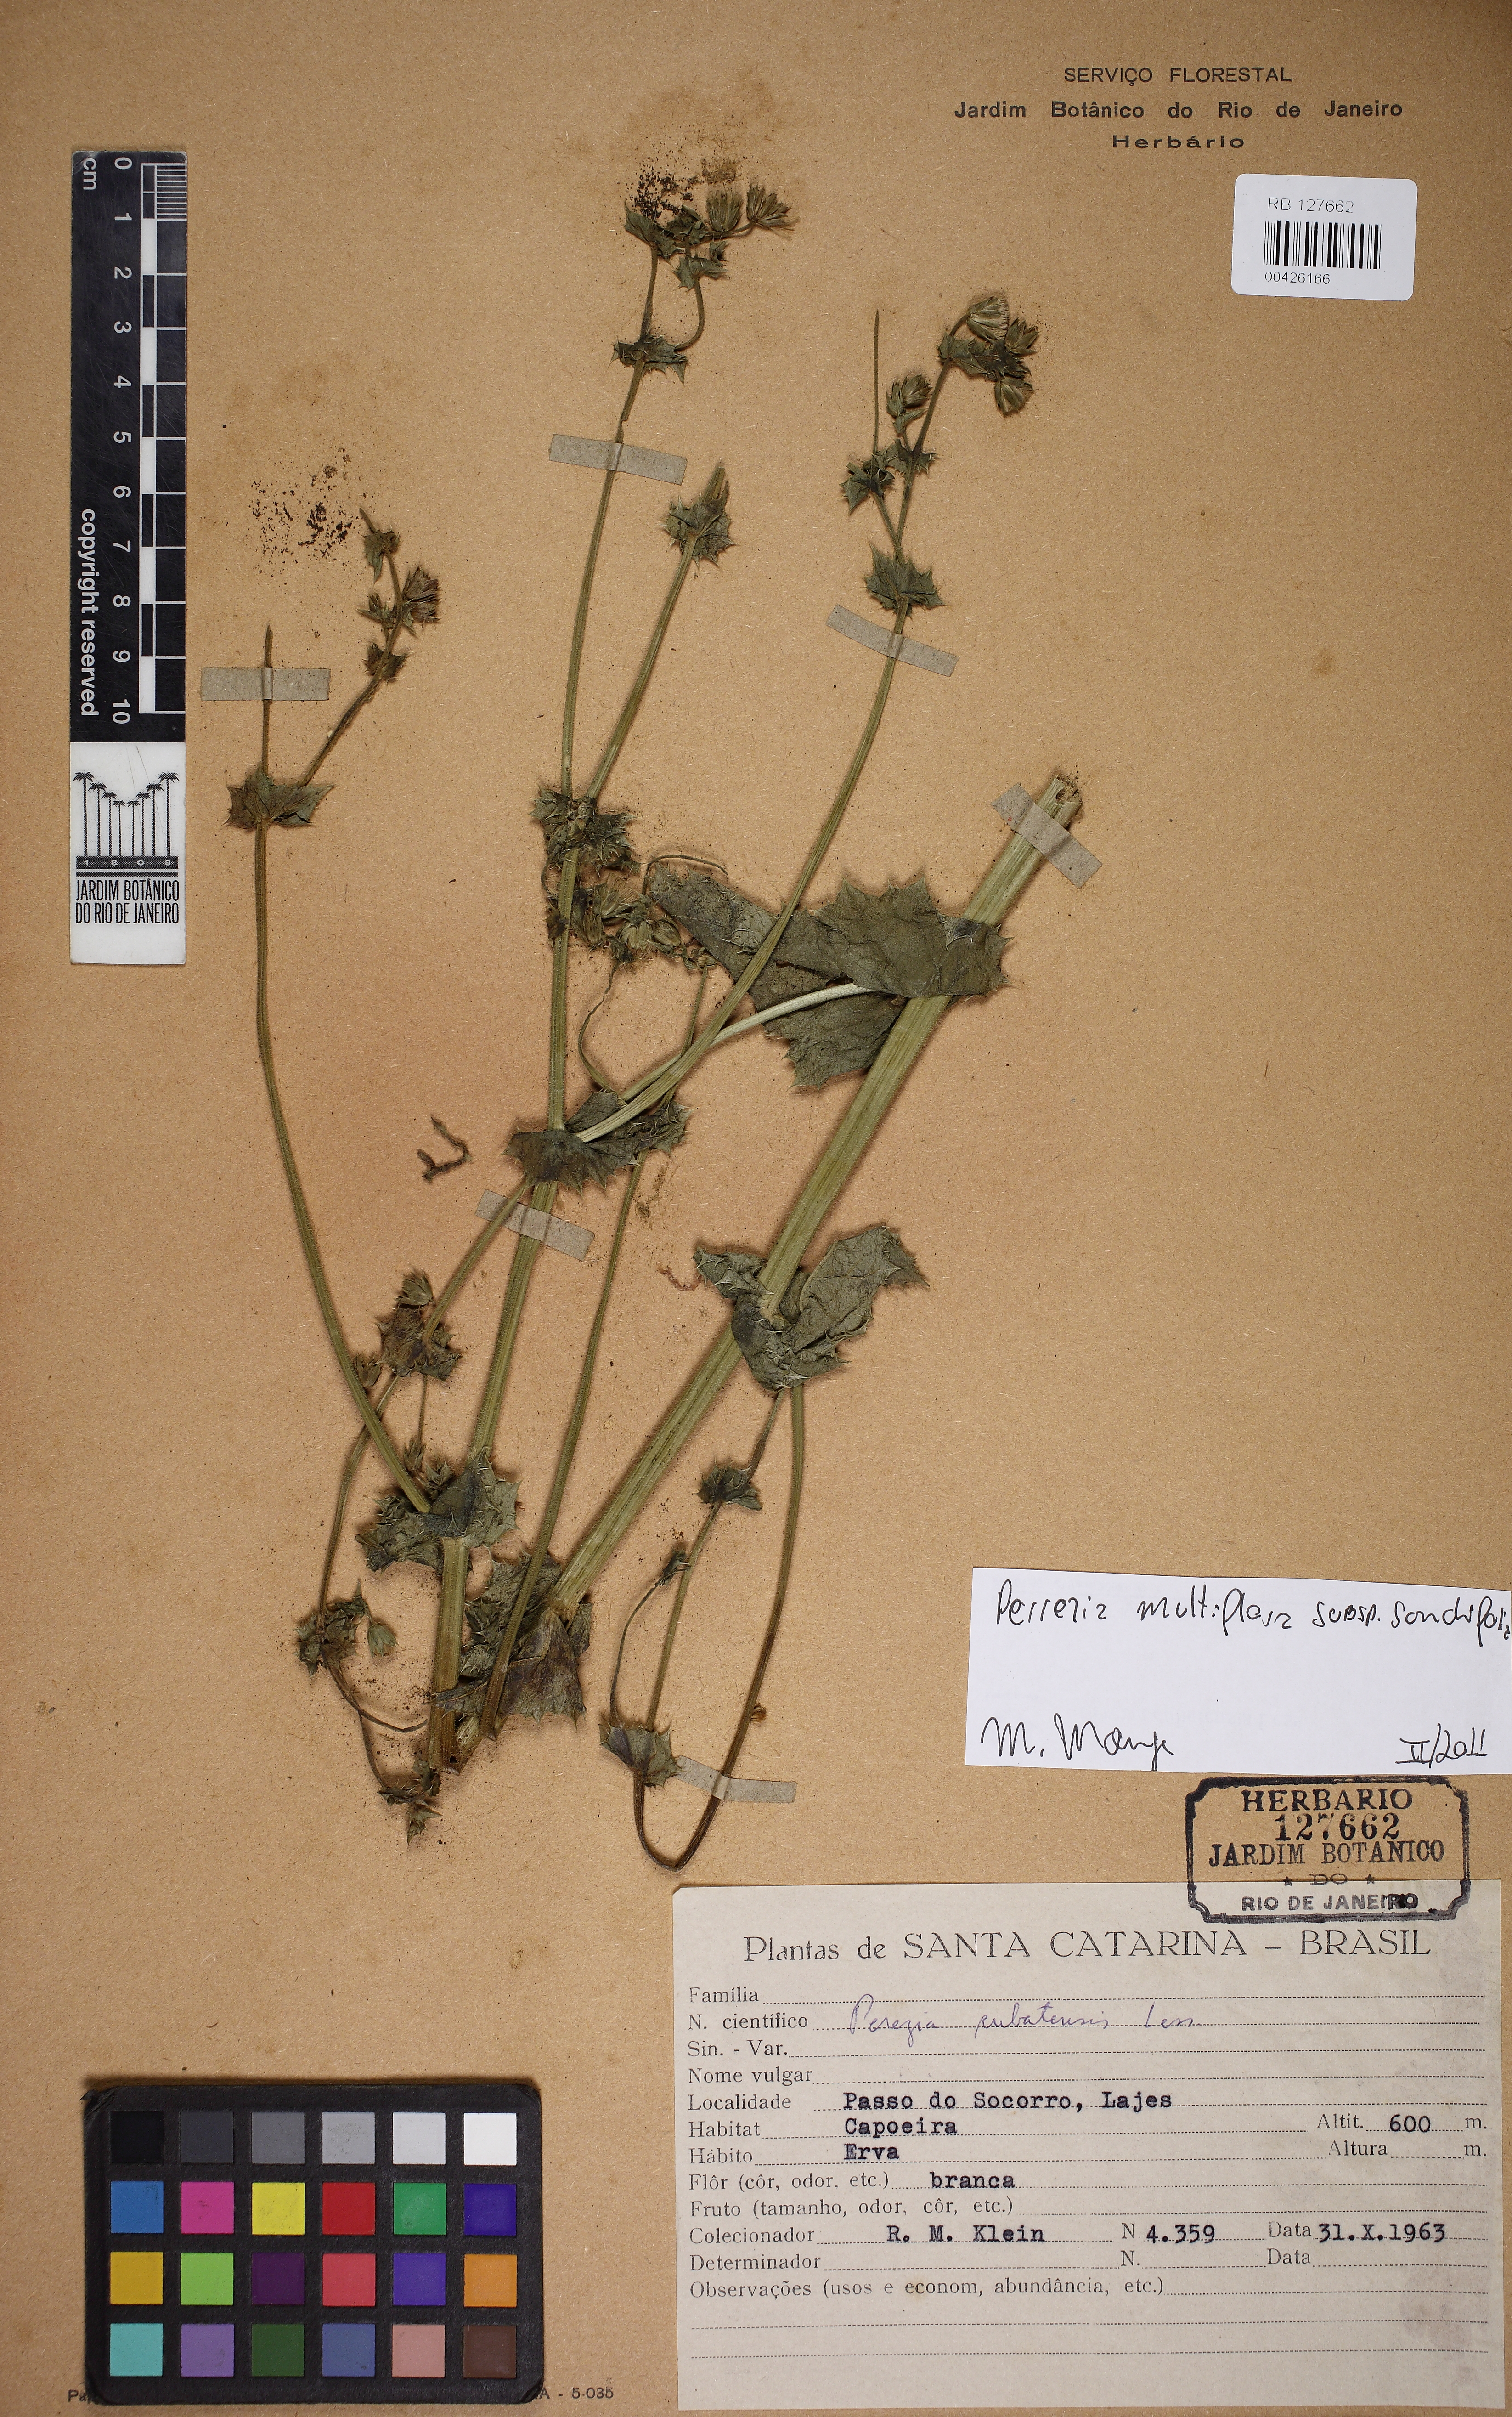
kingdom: Plantae
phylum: Tracheophyta
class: Magnoliopsida
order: Asterales
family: Asteraceae
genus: Perezia
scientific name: Perezia multiflora
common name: Perezia
